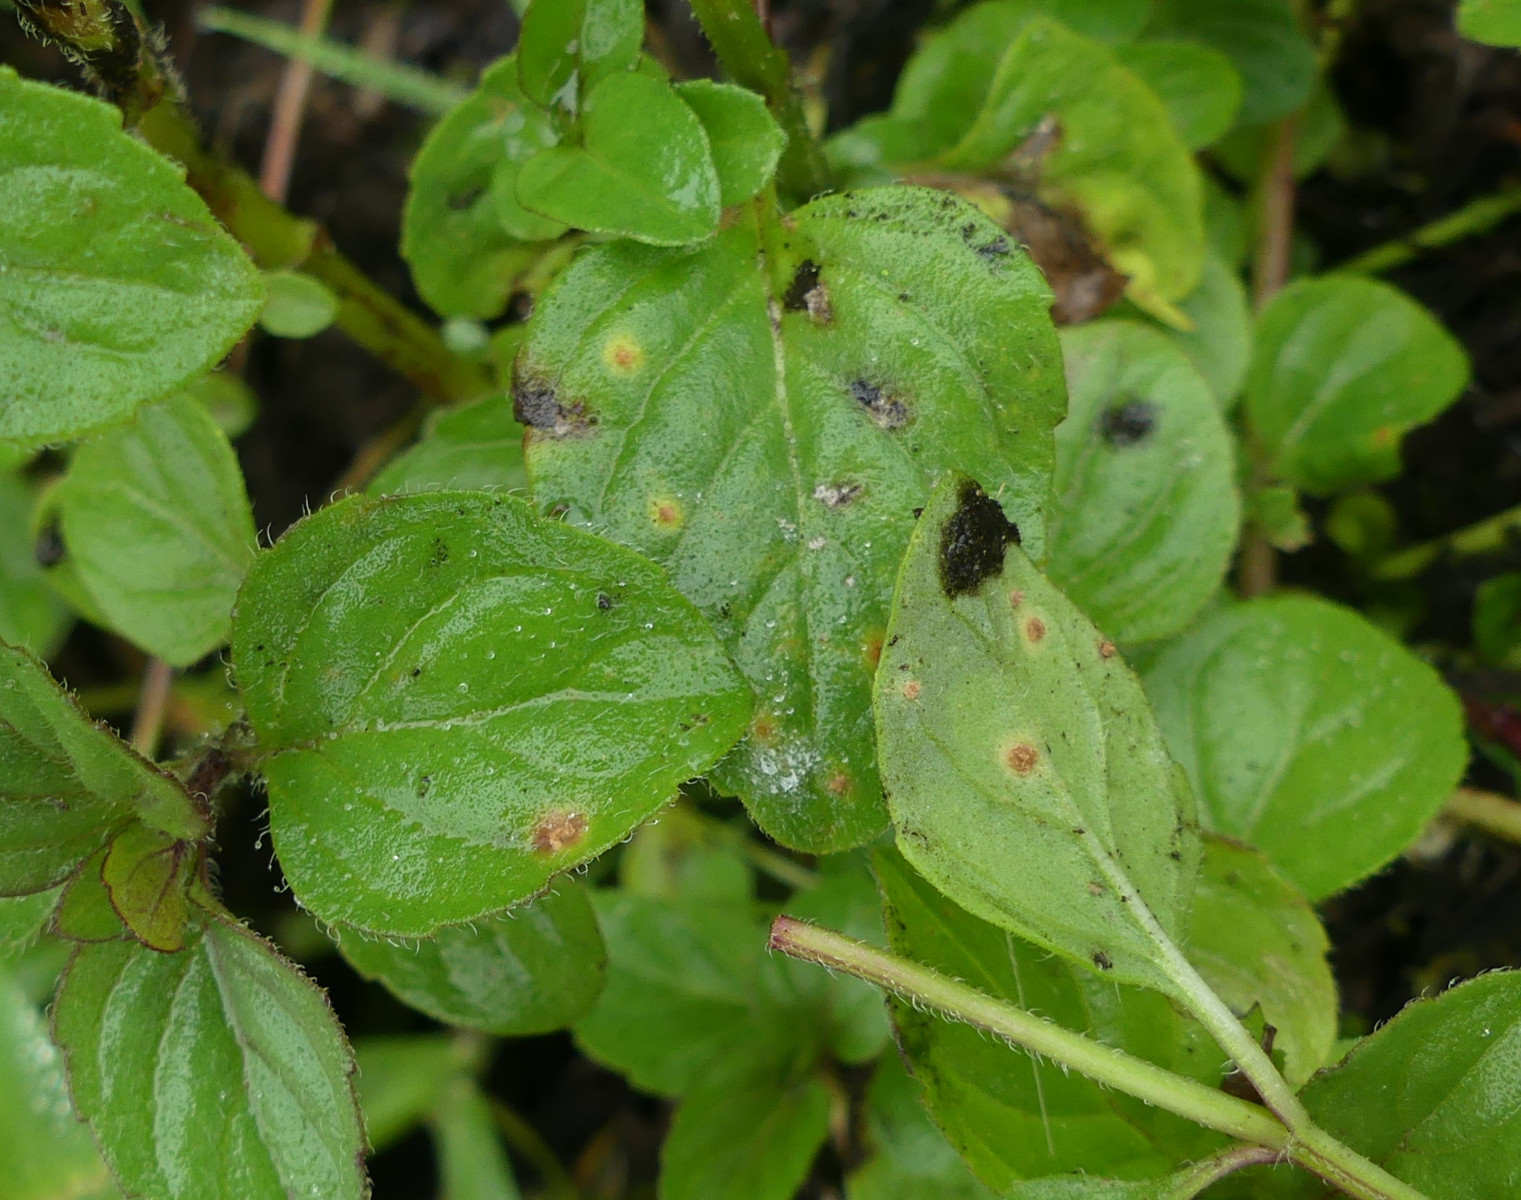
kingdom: Fungi
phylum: Basidiomycota
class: Pucciniomycetes
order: Pucciniales
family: Pucciniaceae
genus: Puccinia
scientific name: Puccinia menthae
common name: Mint rust
